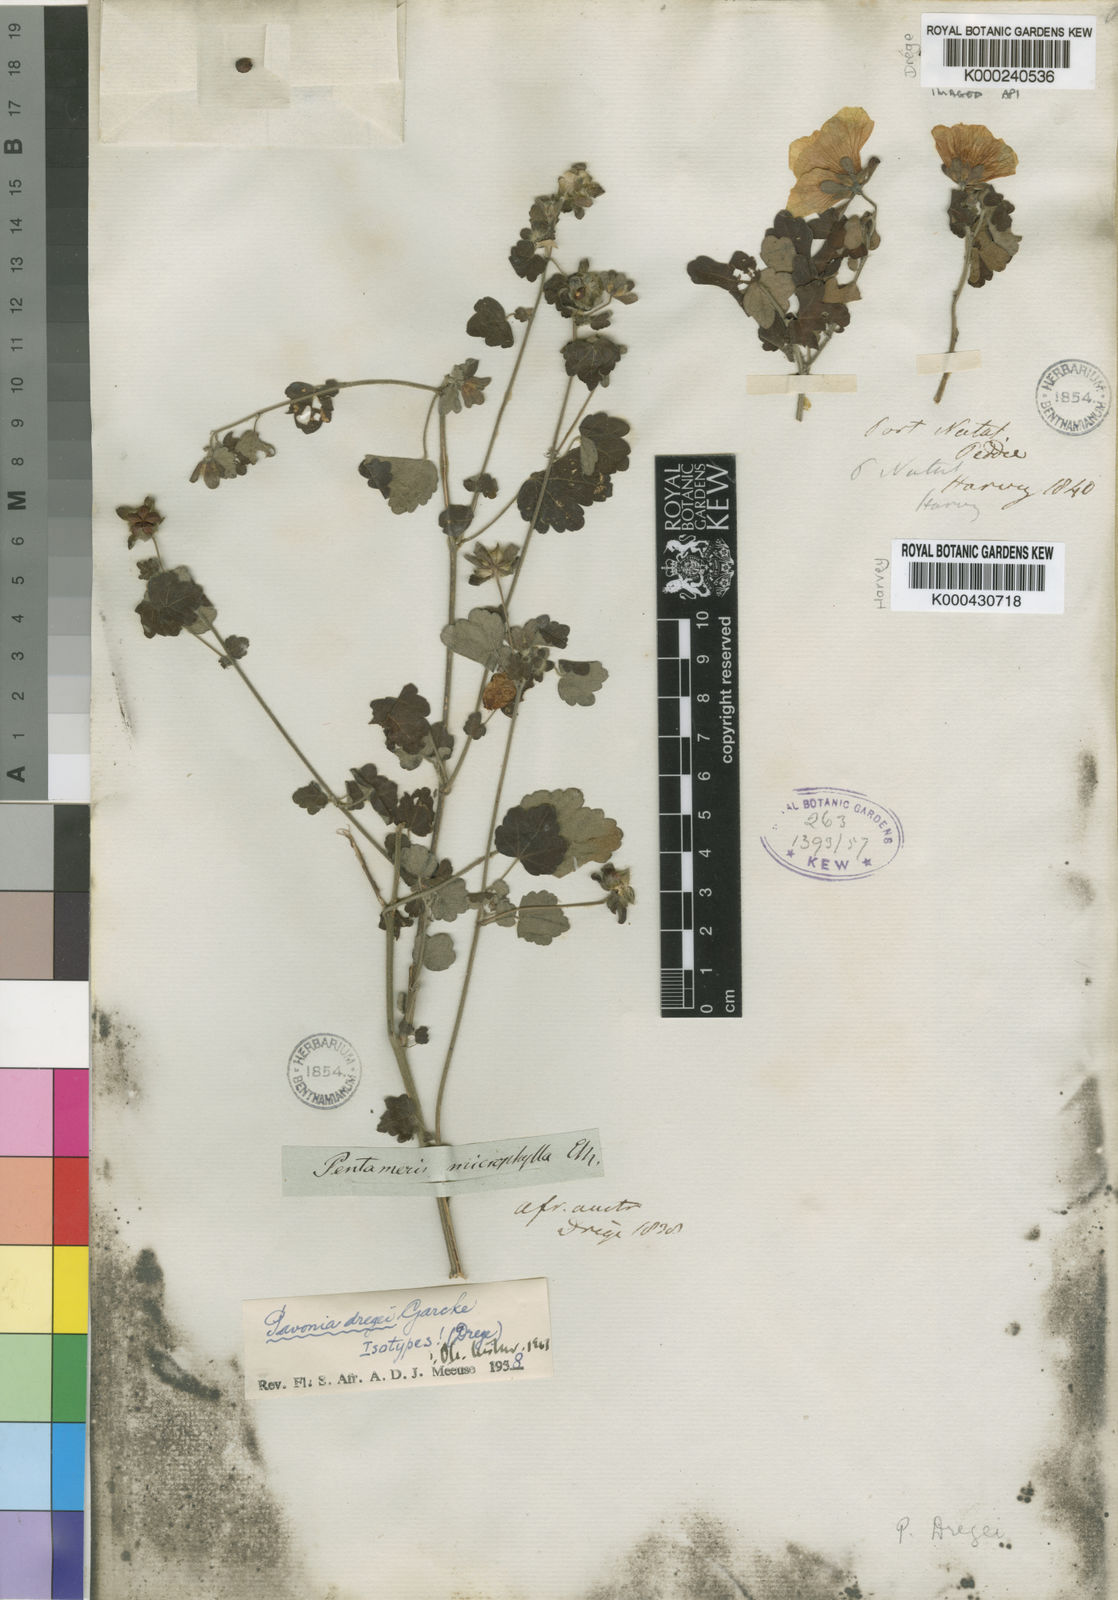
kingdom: Plantae
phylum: Tracheophyta
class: Magnoliopsida
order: Malvales
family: Malvaceae
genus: Pavonia
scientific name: Pavonia dregei
